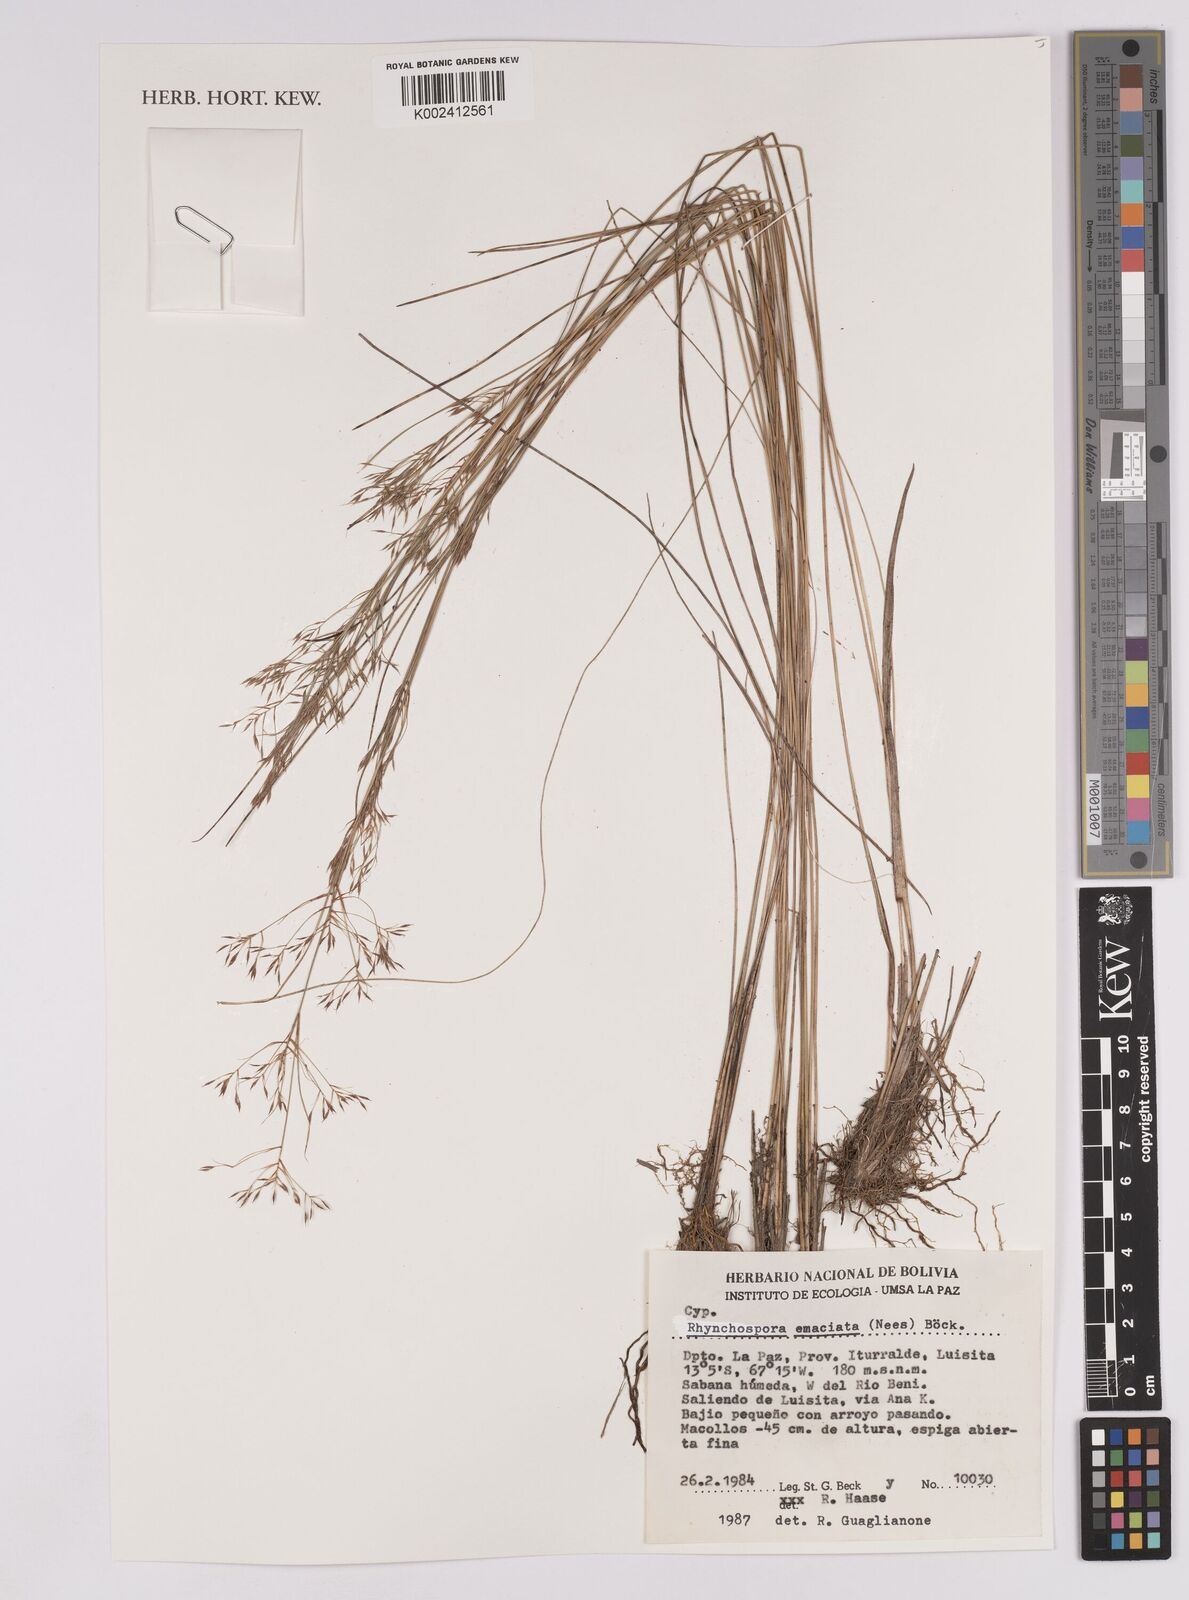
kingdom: Plantae
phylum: Tracheophyta
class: Liliopsida
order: Poales
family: Cyperaceae
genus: Rhynchospora
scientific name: Rhynchospora emaciata
